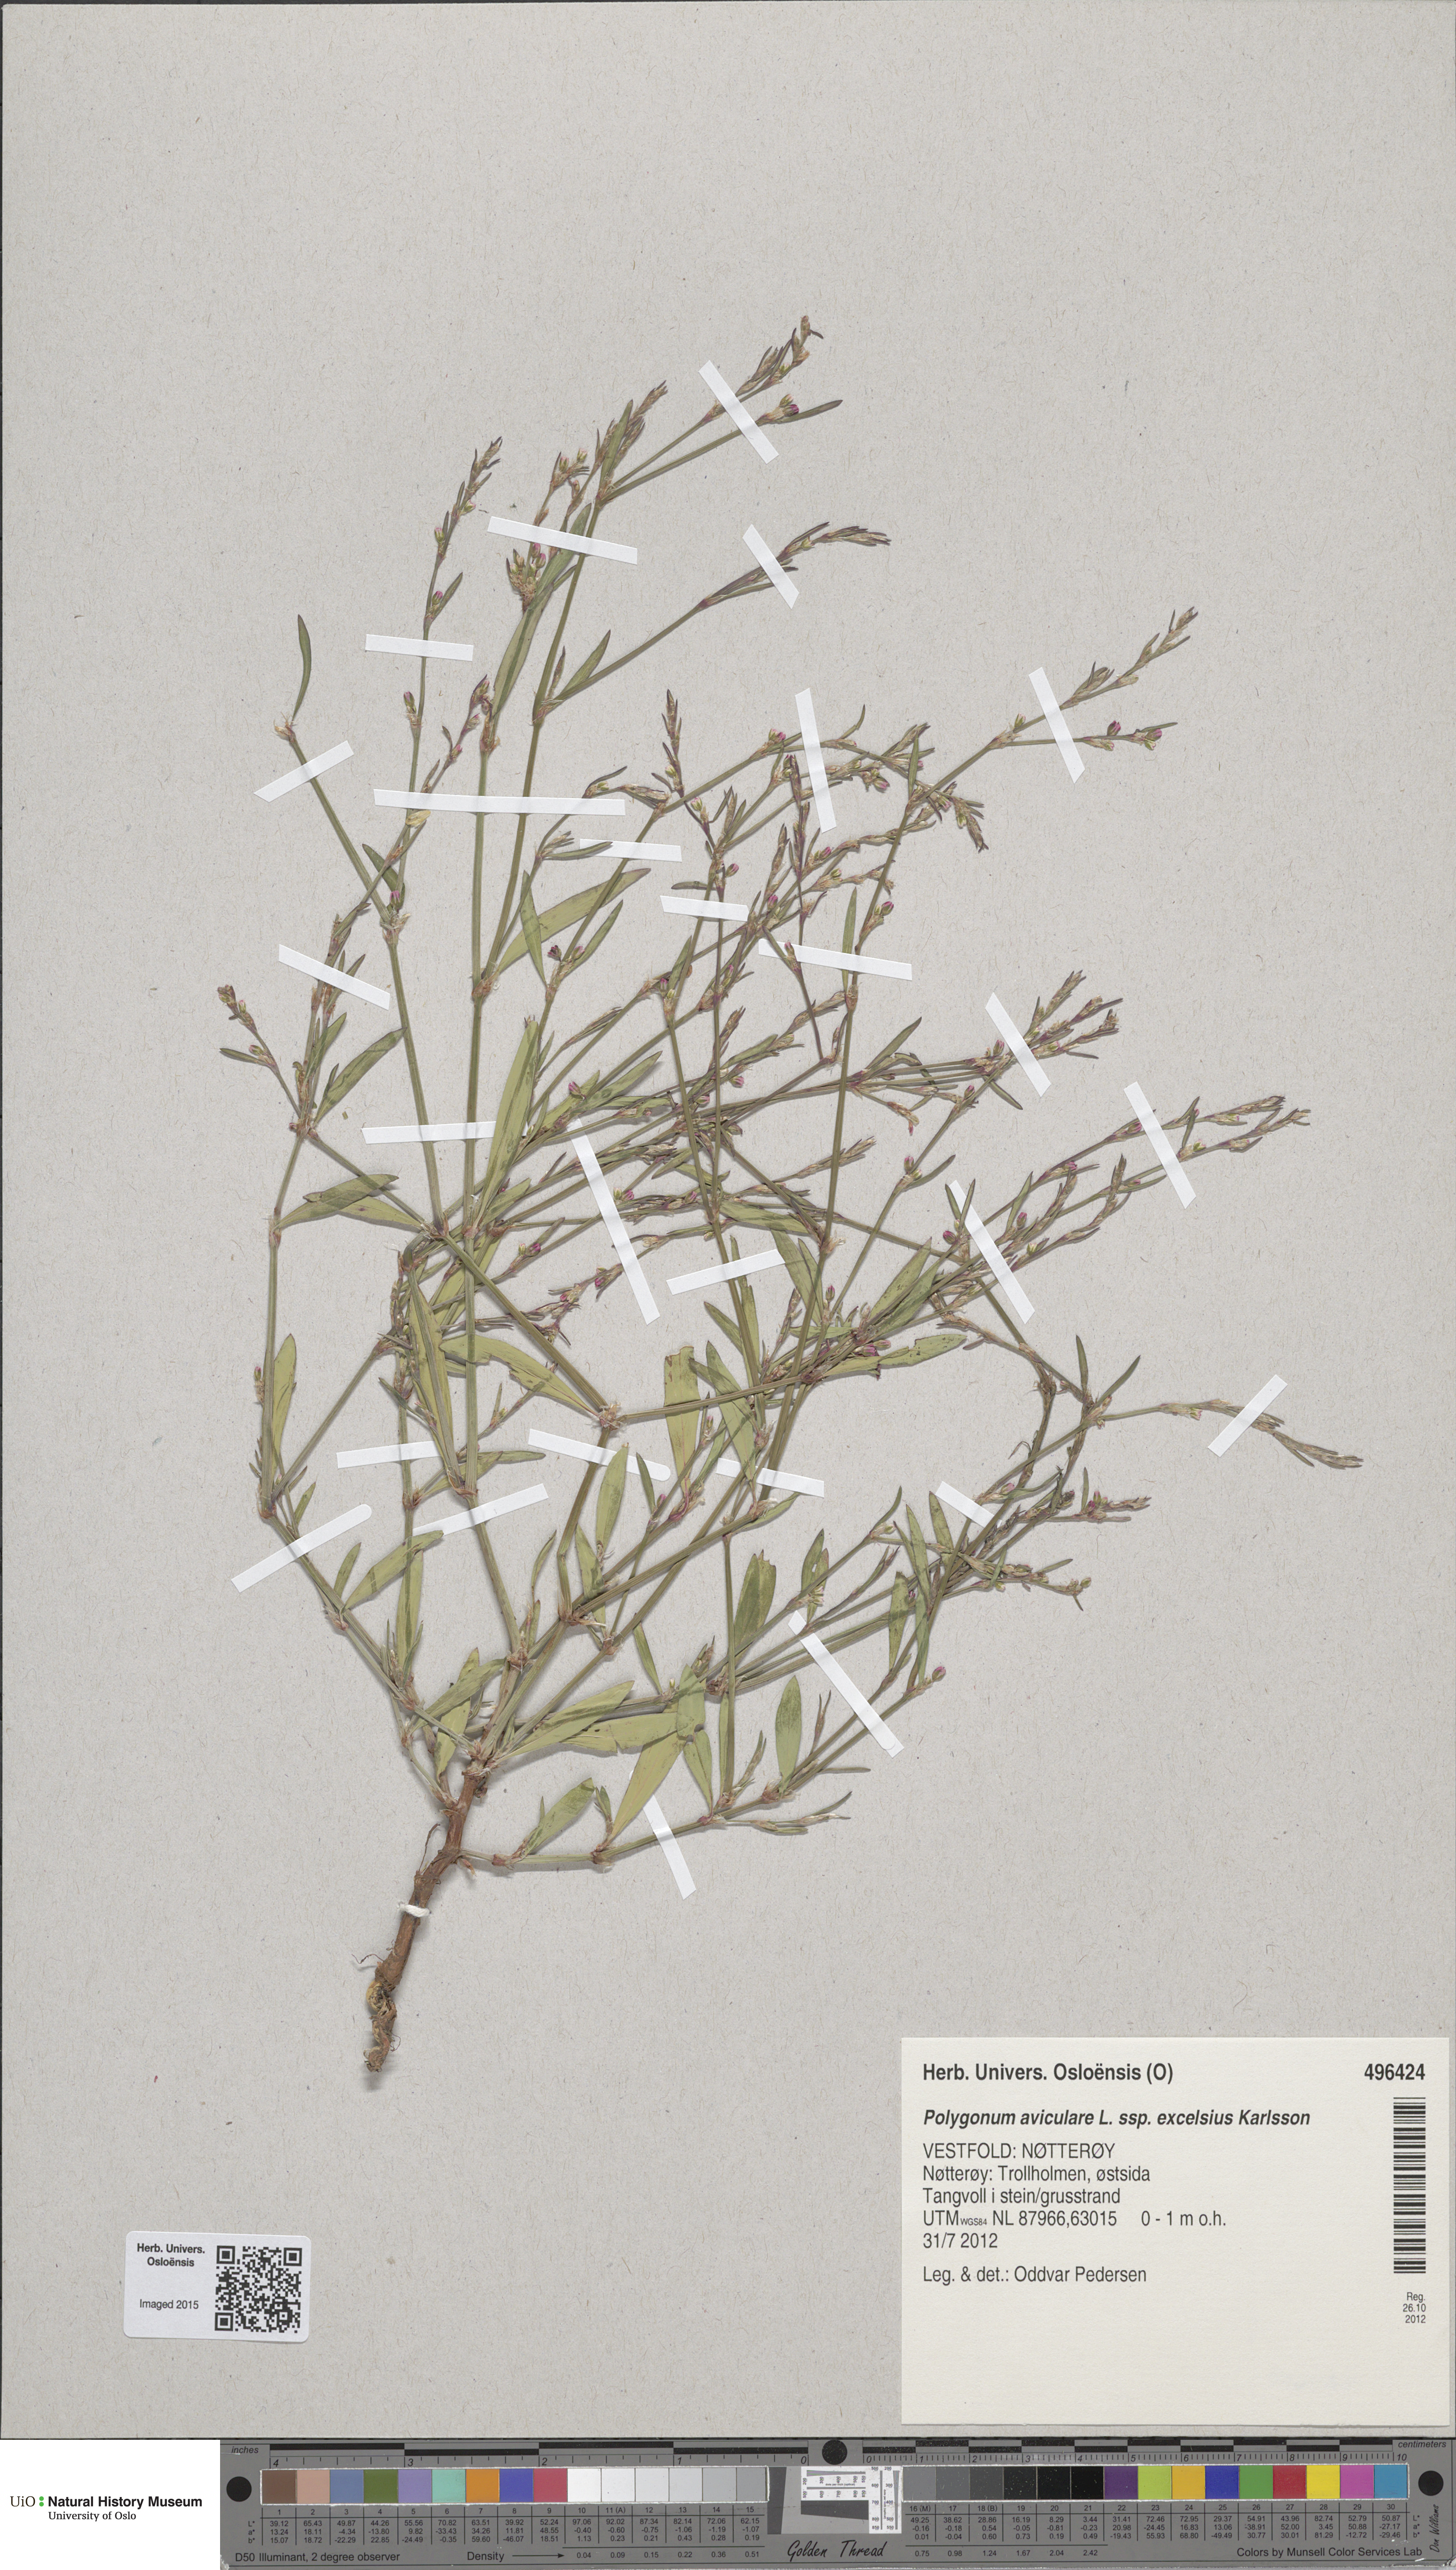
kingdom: Plantae
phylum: Tracheophyta
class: Magnoliopsida
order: Caryophyllales
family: Polygonaceae
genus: Polygonum
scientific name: Polygonum excelsius
